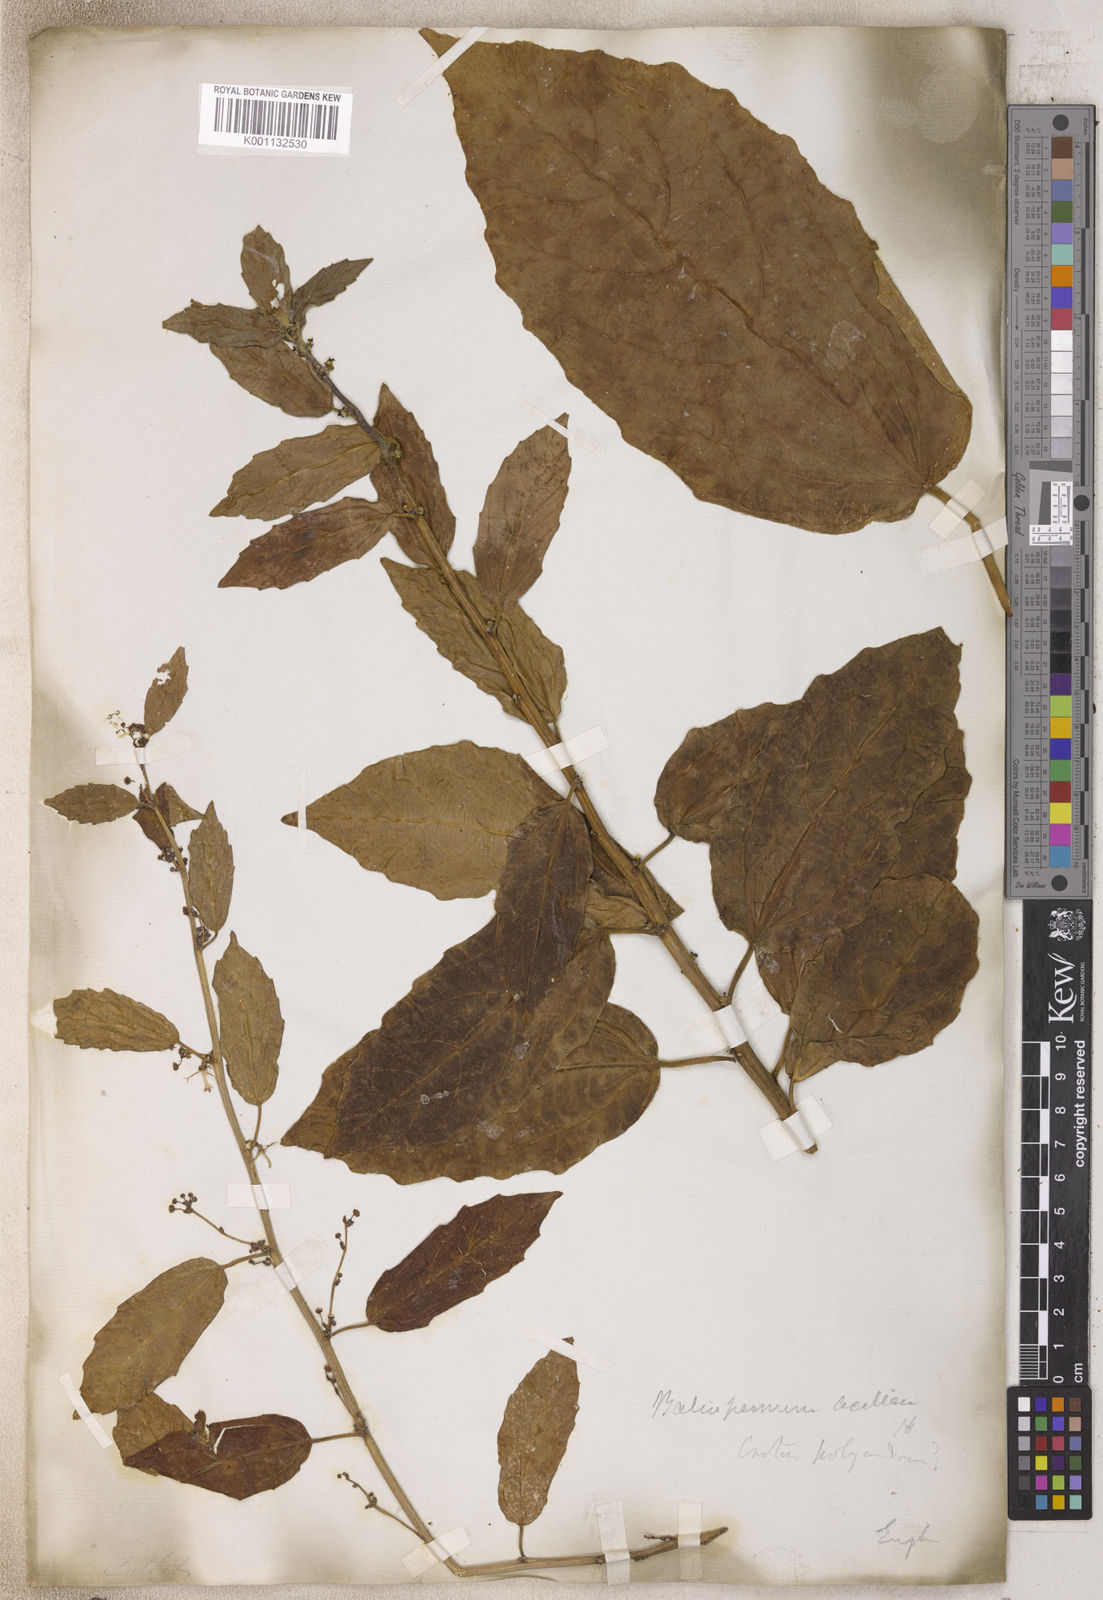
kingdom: Plantae
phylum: Tracheophyta
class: Magnoliopsida
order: Malpighiales
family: Euphorbiaceae
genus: Baliospermum
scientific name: Baliospermum
